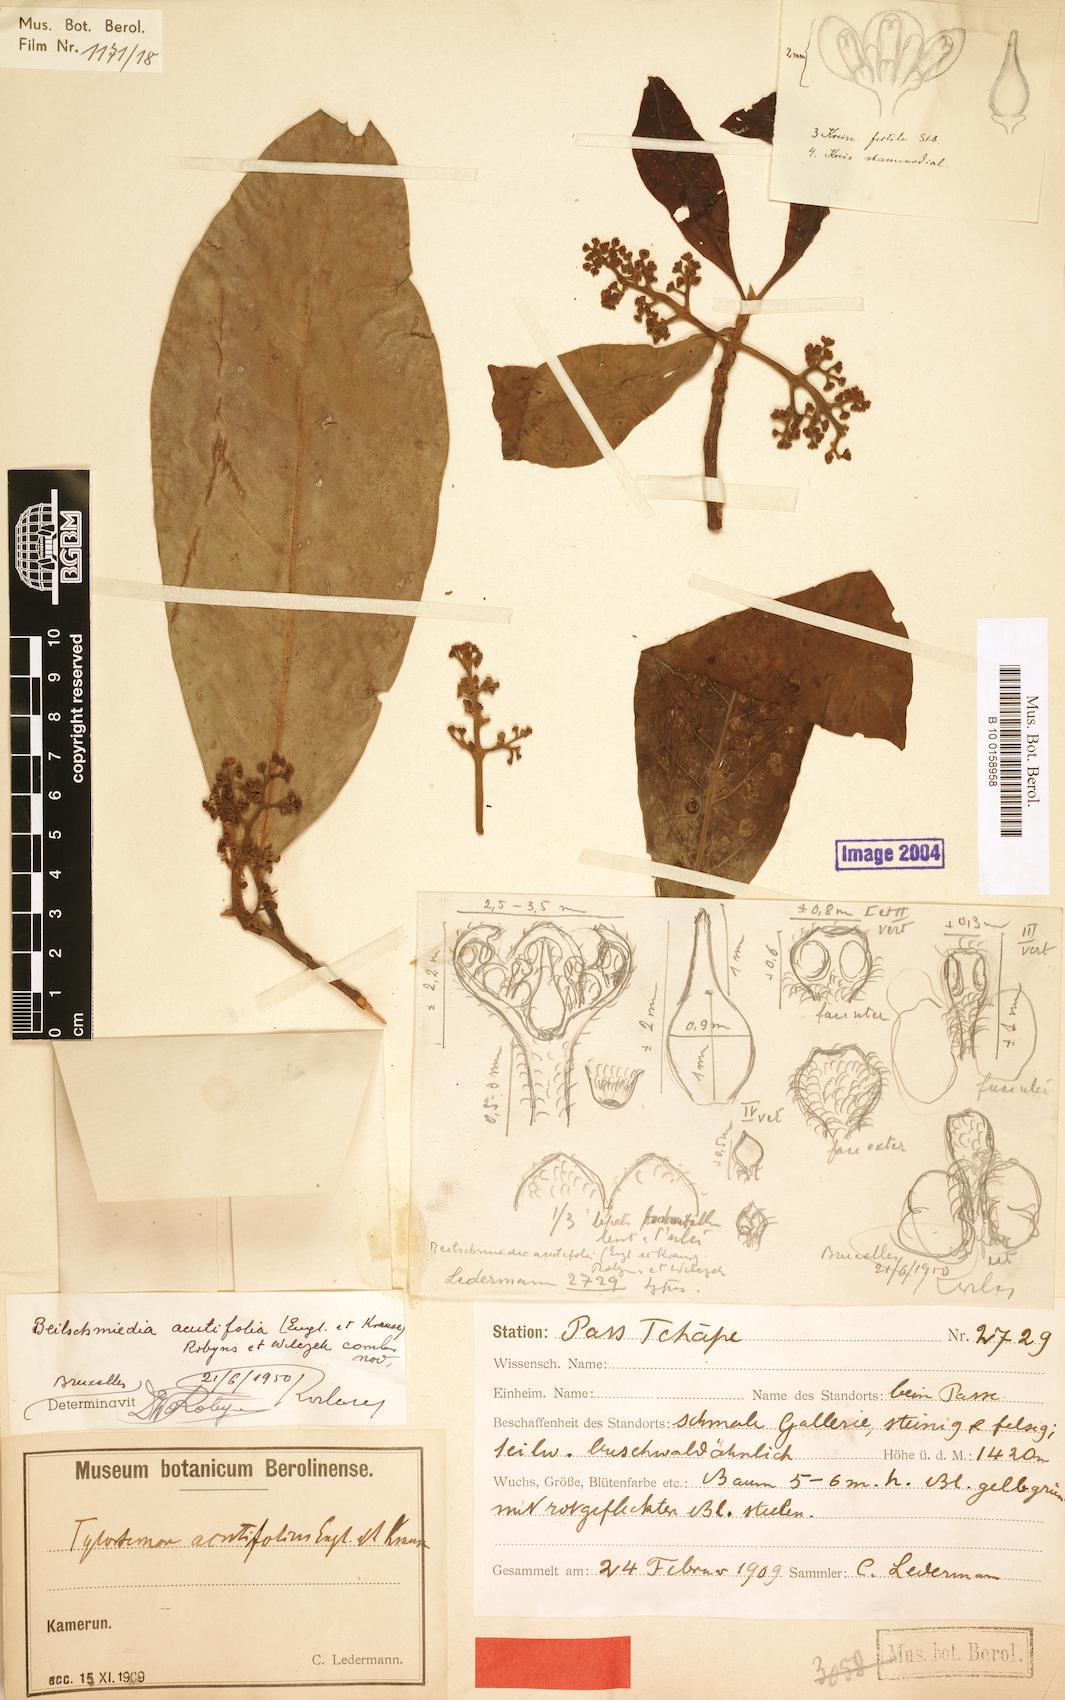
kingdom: Plantae
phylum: Tracheophyta
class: Magnoliopsida
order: Laurales
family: Lauraceae
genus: Beilschmiedia
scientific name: Beilschmiedia acuta
